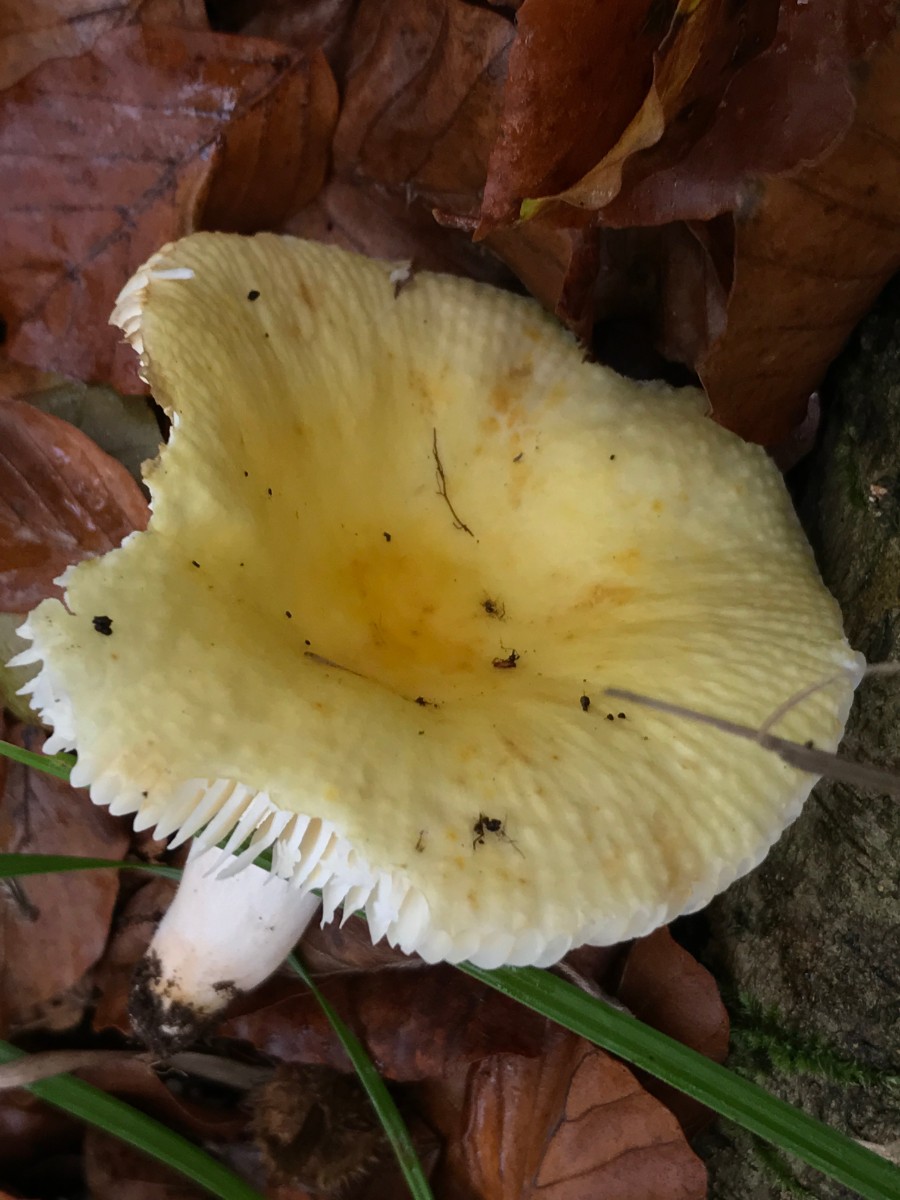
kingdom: Fungi
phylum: Basidiomycota
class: Agaricomycetes
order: Russulales
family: Russulaceae
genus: Russula
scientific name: Russula solaris
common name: sol-skørhat
